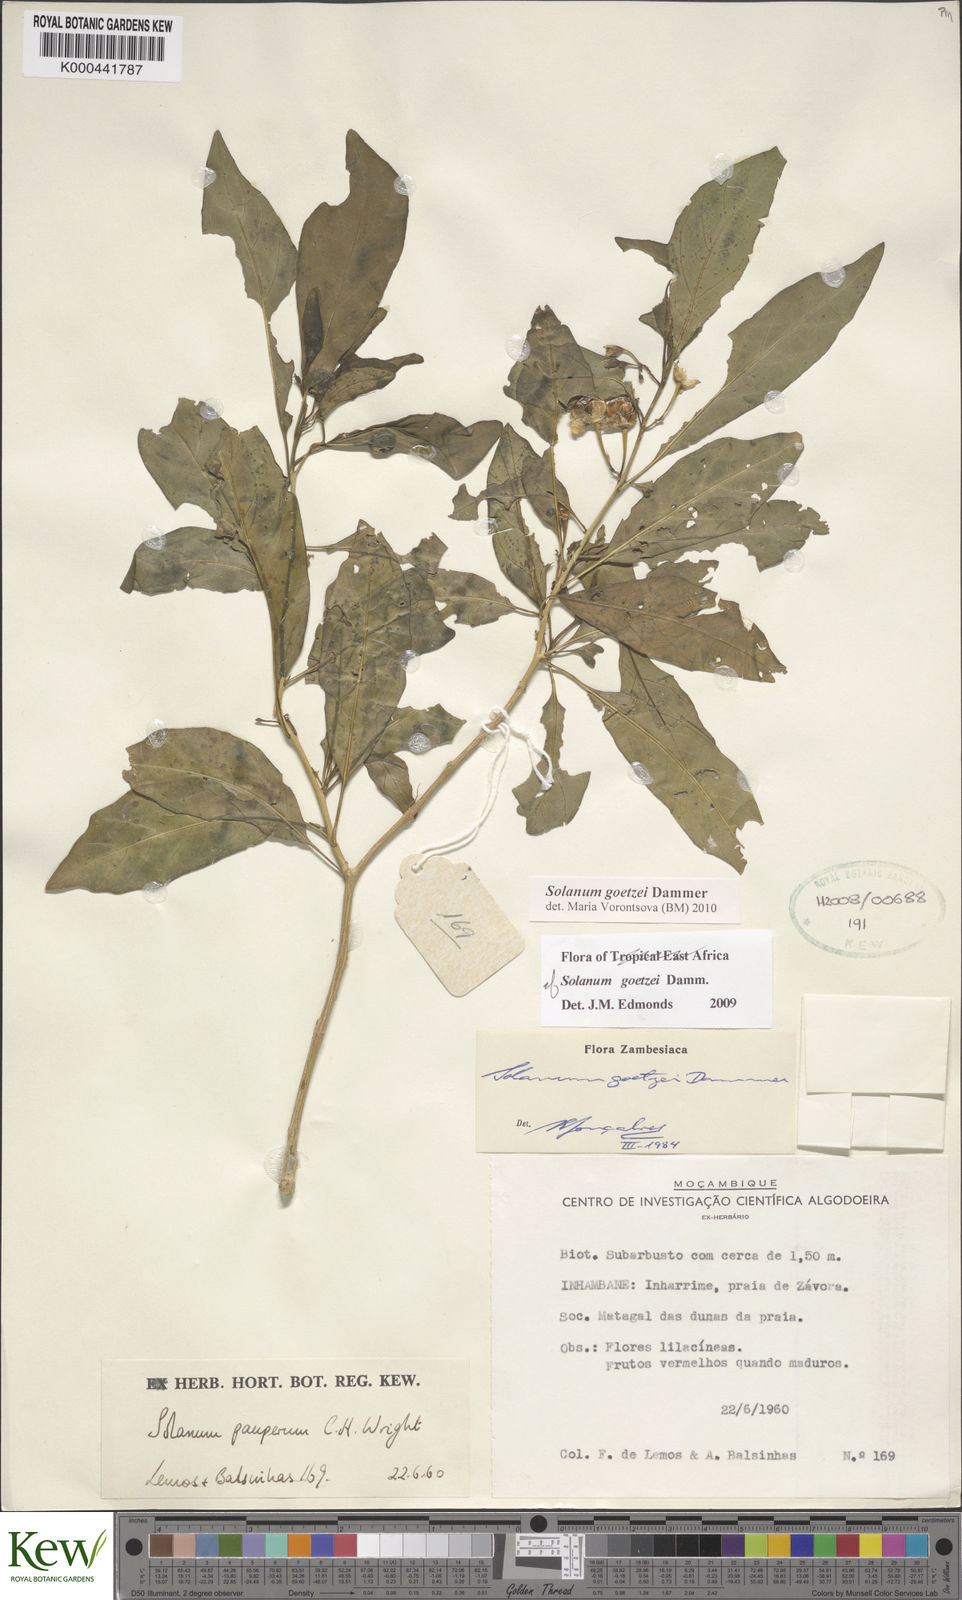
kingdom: Plantae
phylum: Tracheophyta
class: Magnoliopsida
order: Solanales
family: Solanaceae
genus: Solanum
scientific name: Solanum goetzei
